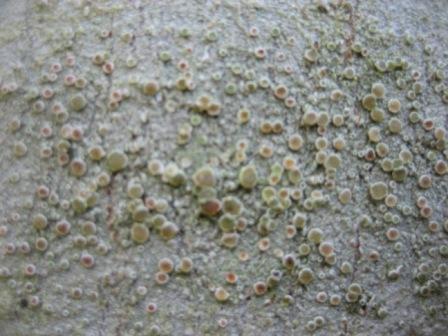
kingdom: Fungi
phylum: Ascomycota
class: Lecanoromycetes
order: Lecanorales
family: Lecanoraceae
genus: Lecanora
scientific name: Lecanora chlarotera
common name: brun kantskivelav
